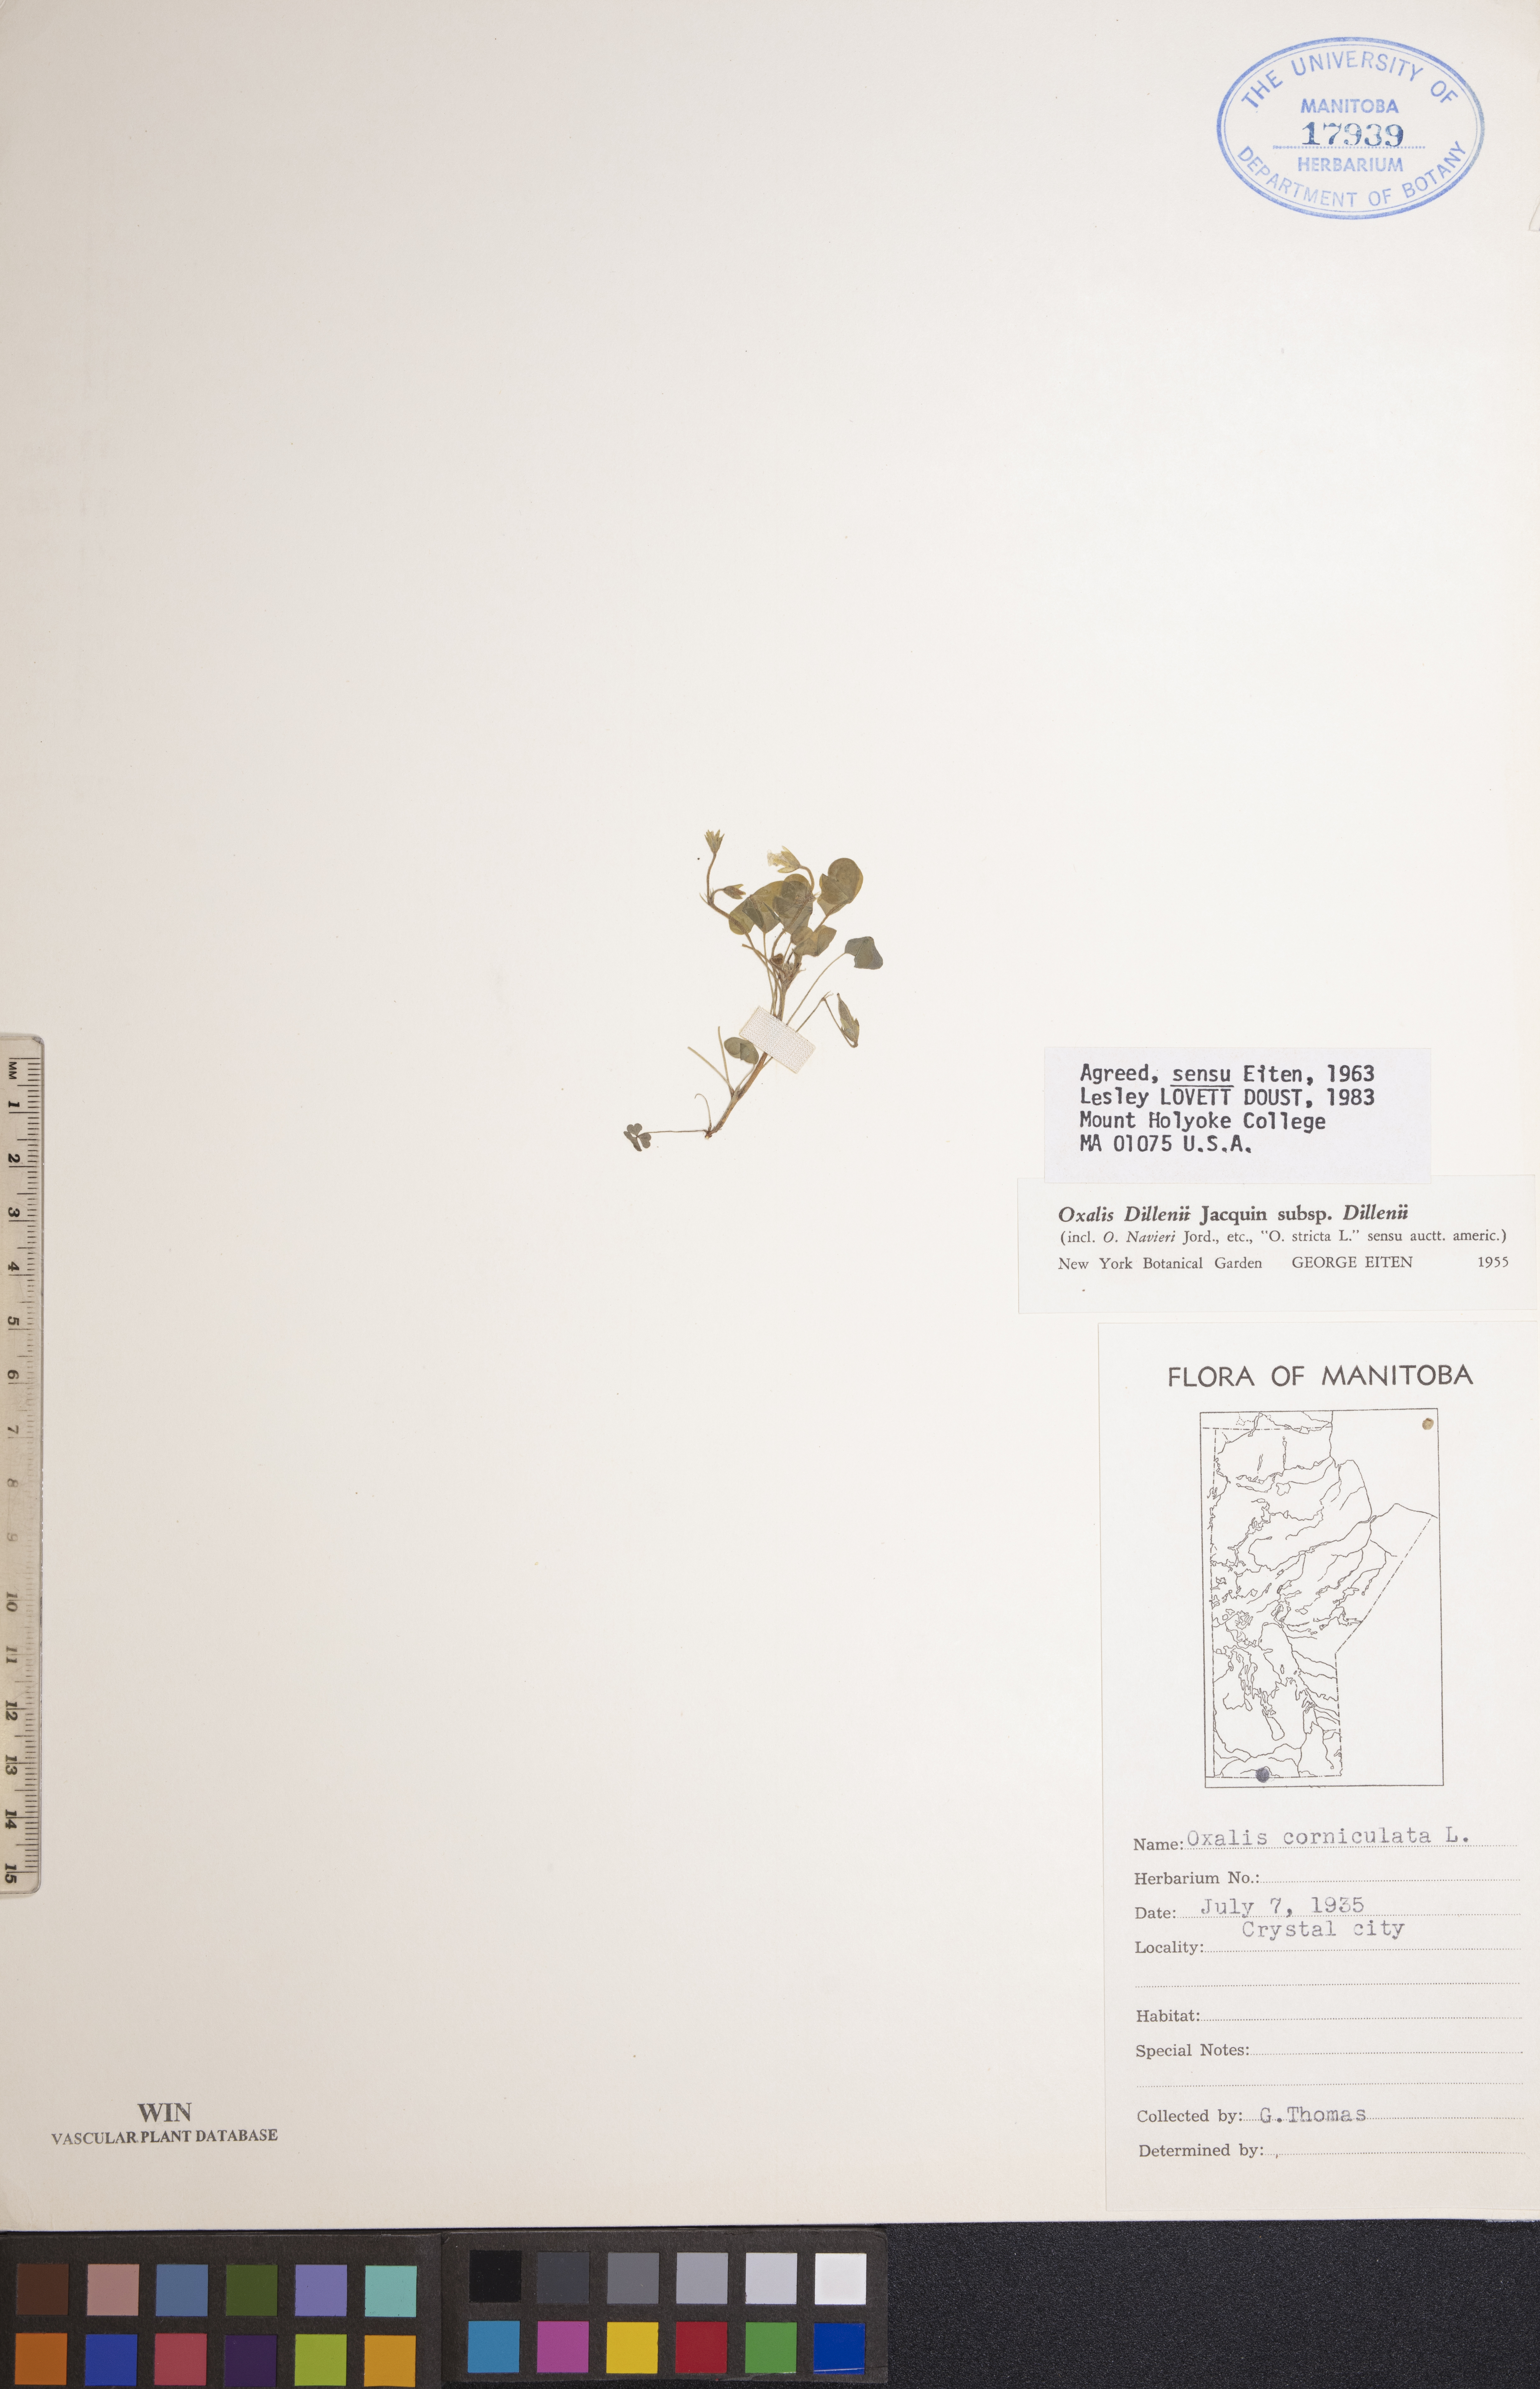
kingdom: Plantae
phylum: Tracheophyta
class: Magnoliopsida
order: Oxalidales
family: Oxalidaceae
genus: Oxalis
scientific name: Oxalis dillenii
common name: Sussex yellow-sorrel
